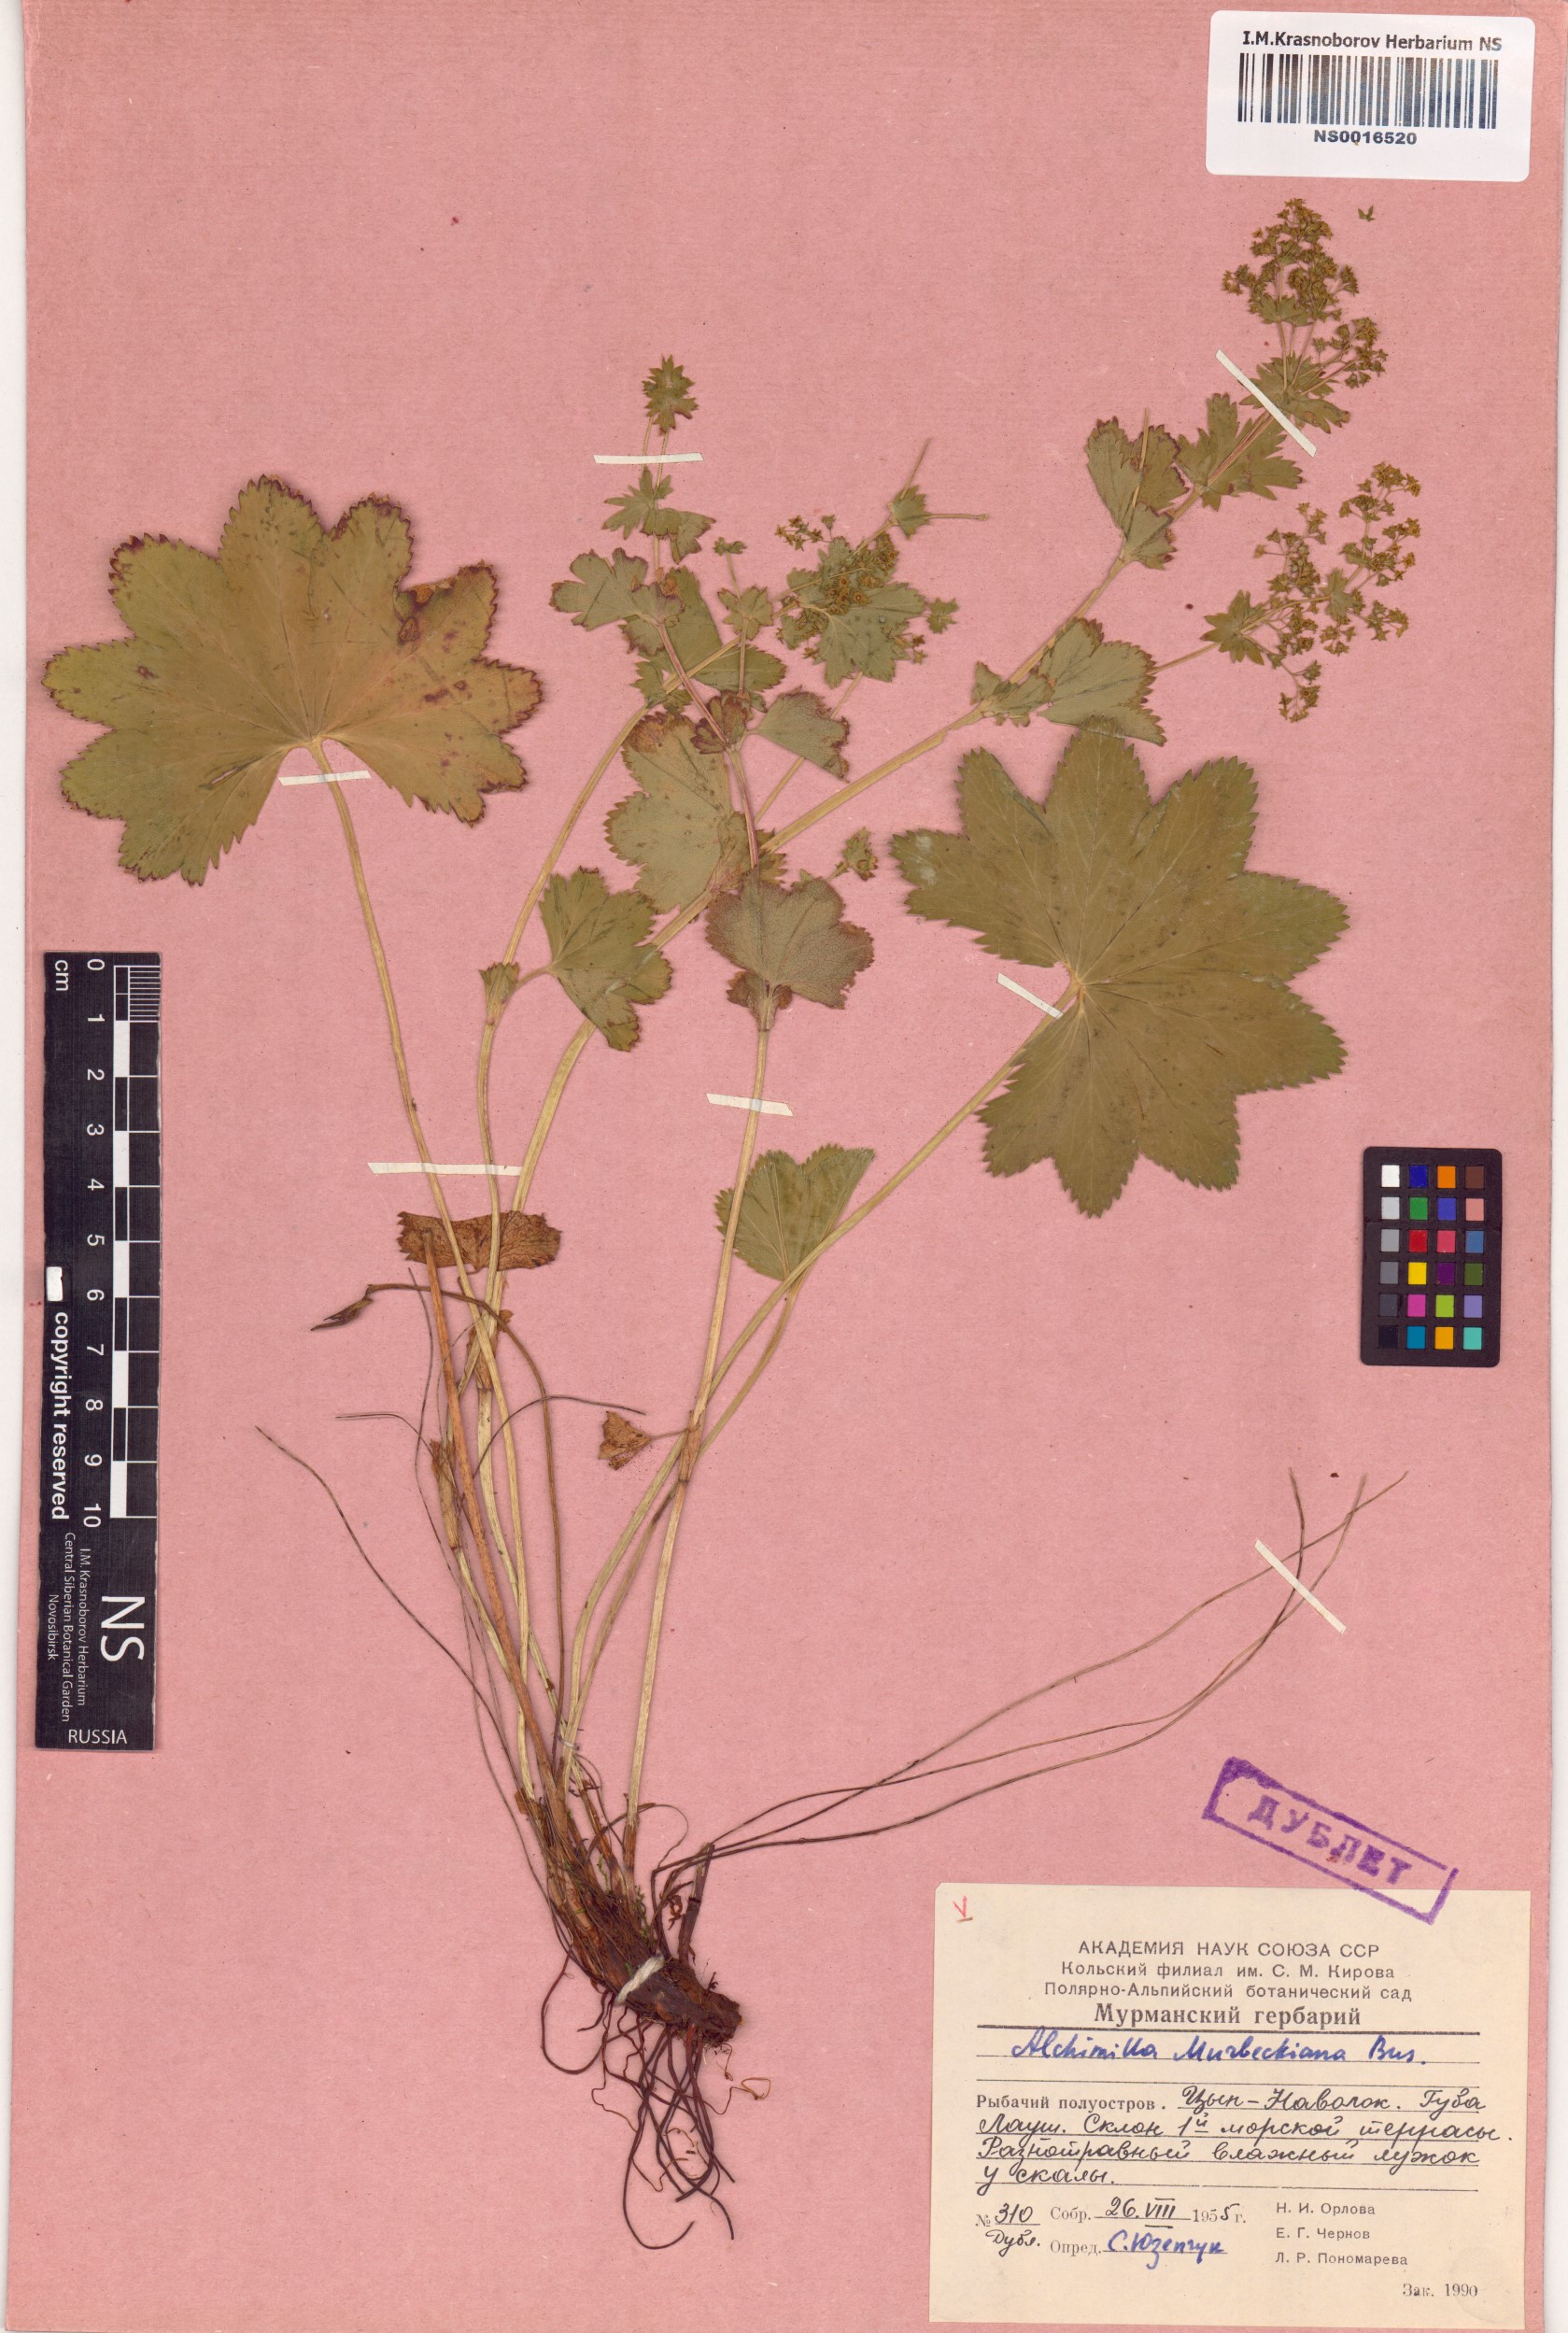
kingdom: Plantae
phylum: Tracheophyta
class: Magnoliopsida
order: Rosales
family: Rosaceae
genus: Alchemilla
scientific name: Alchemilla murbeckiana
